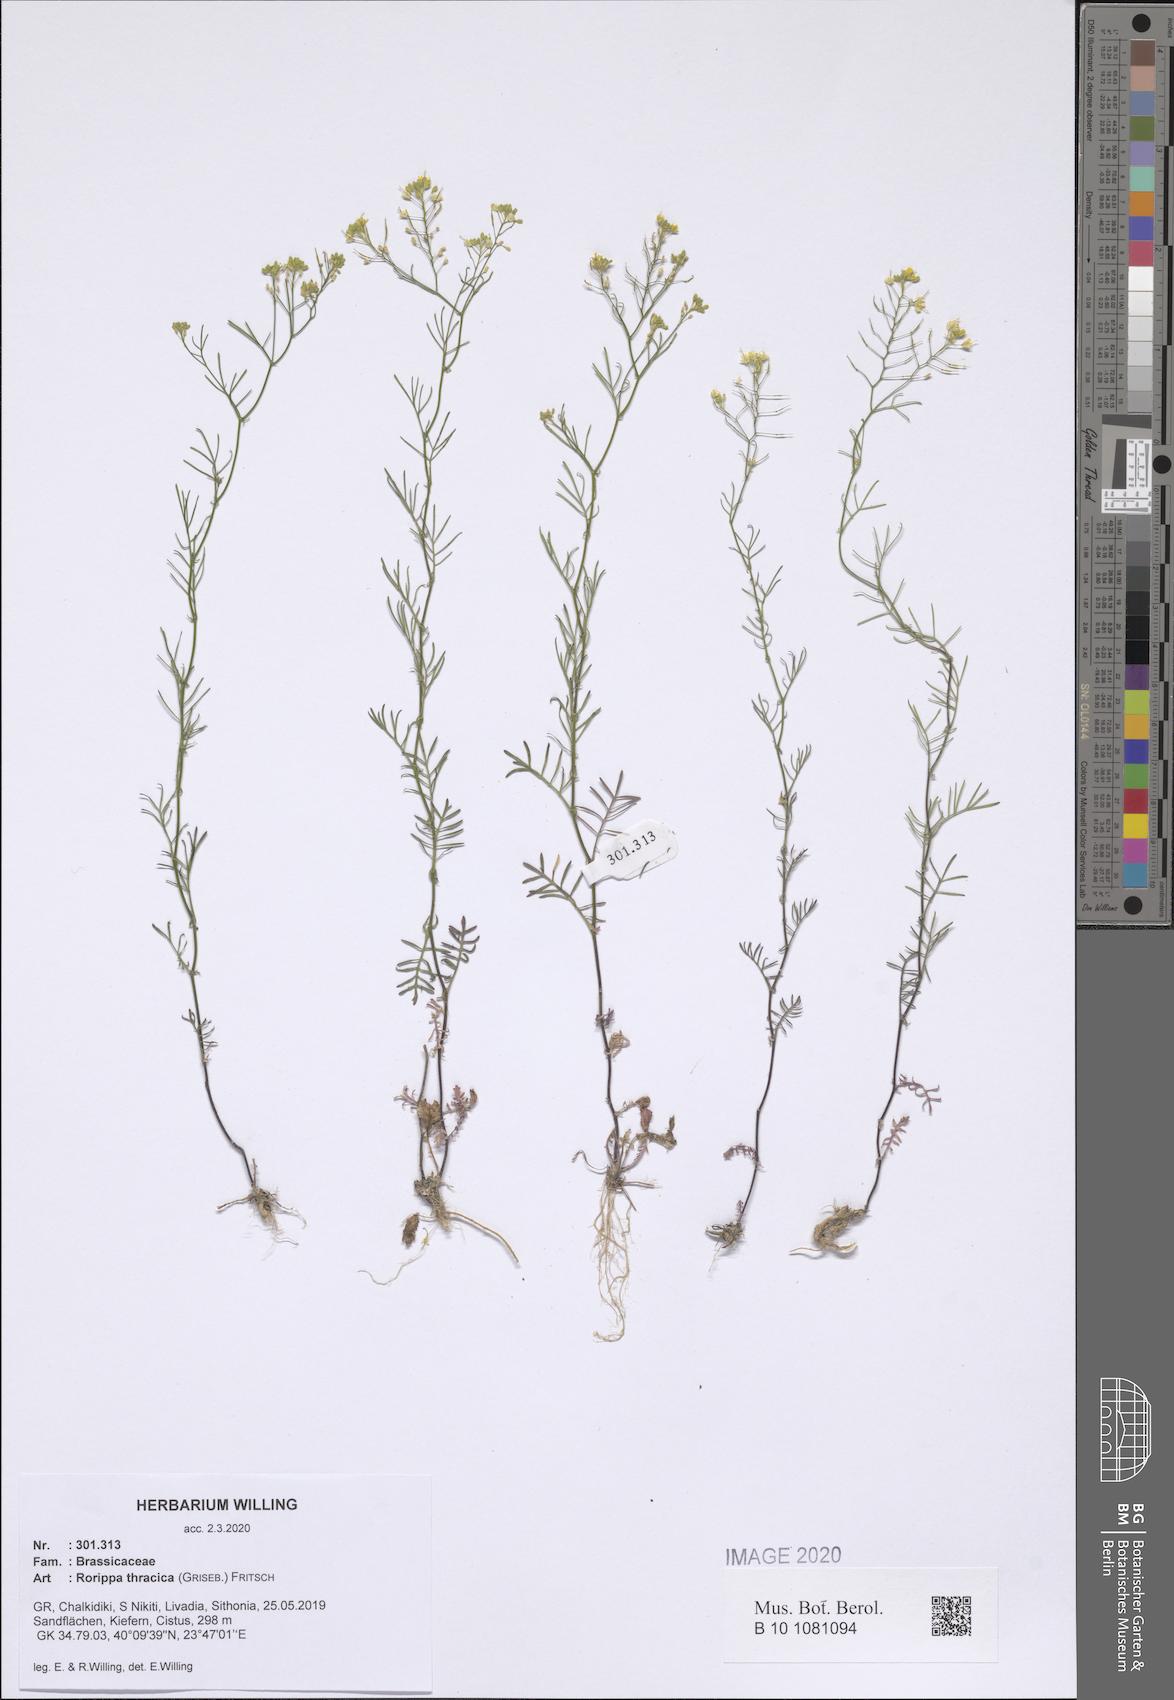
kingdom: Plantae
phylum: Tracheophyta
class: Magnoliopsida
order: Brassicales
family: Brassicaceae
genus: Rorippa
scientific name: Rorippa lippizensis
